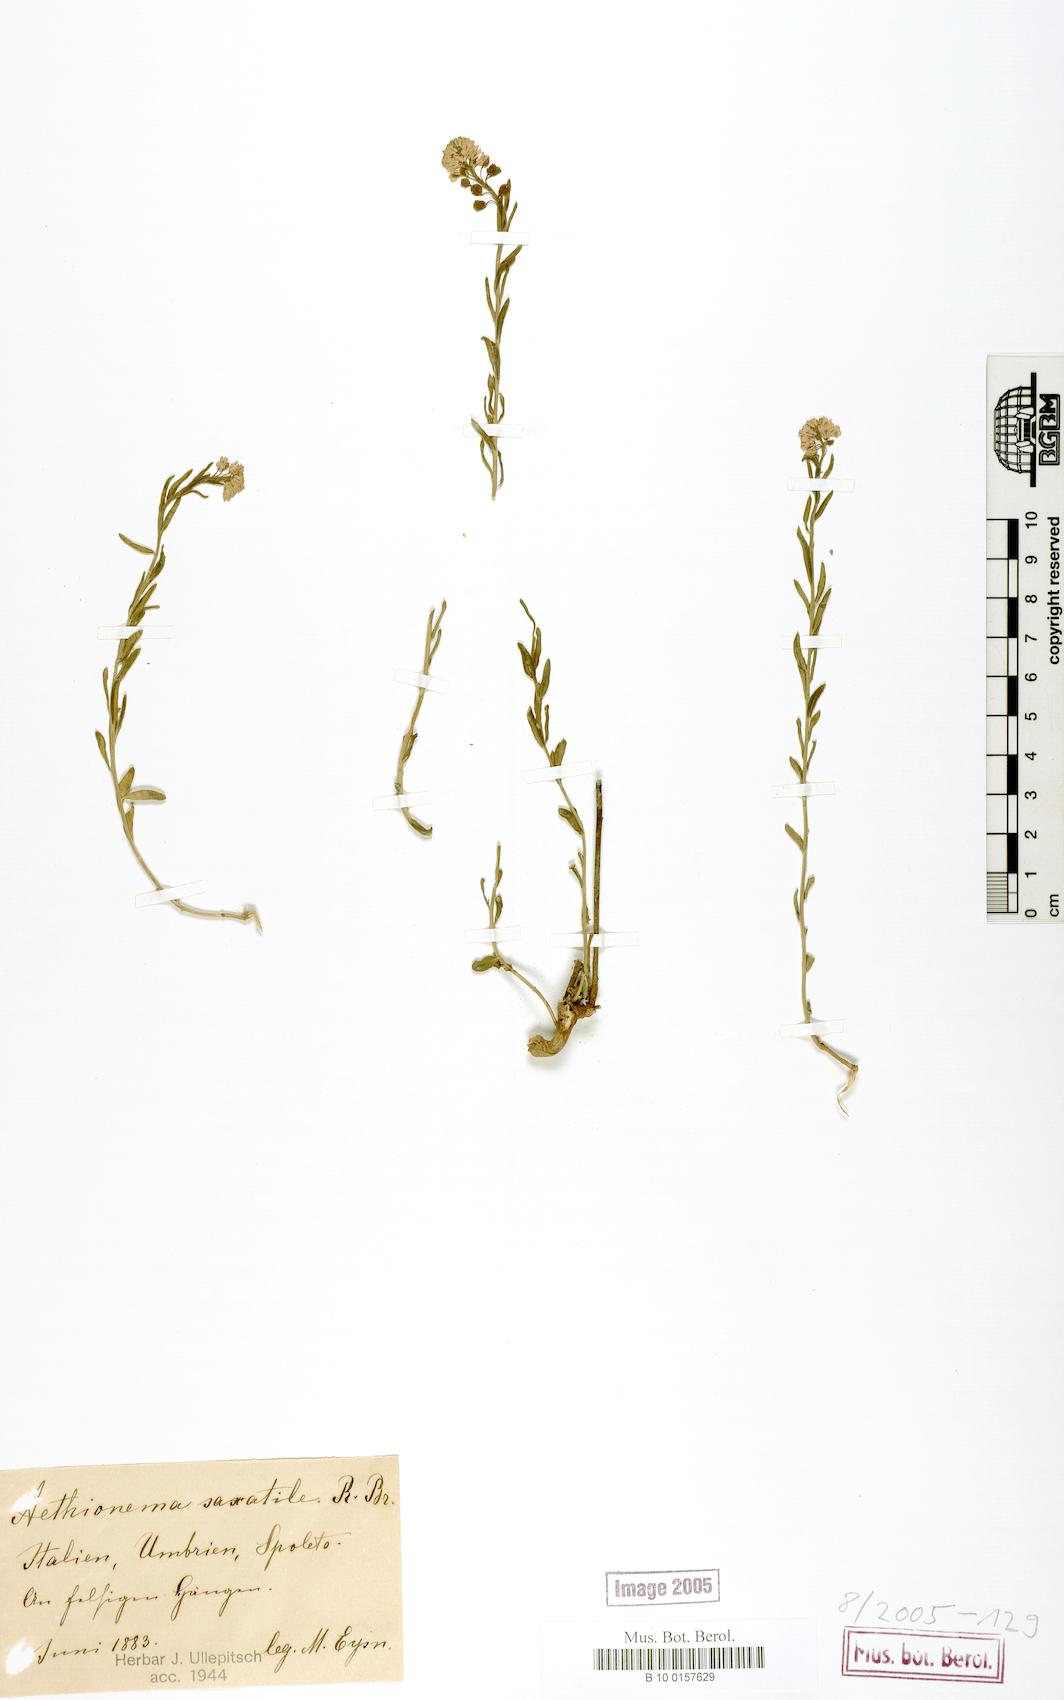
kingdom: Plantae
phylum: Tracheophyta
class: Magnoliopsida
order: Brassicales
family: Brassicaceae
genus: Aethionema
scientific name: Aethionema saxatile
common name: Burnt candytuft
